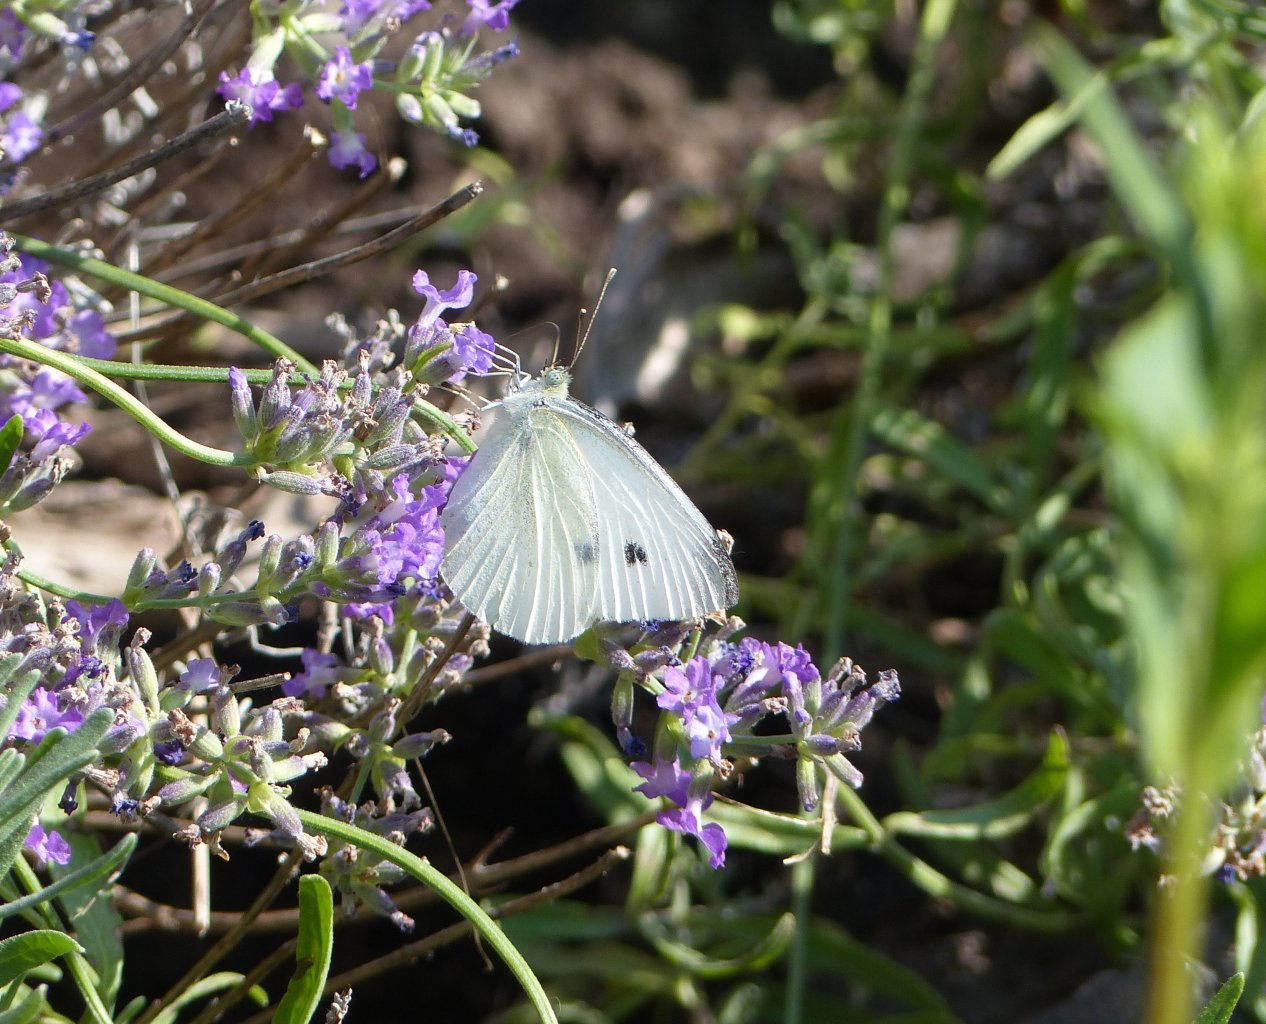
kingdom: Animalia
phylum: Arthropoda
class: Insecta
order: Lepidoptera
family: Pieridae
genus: Pieris
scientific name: Pieris rapae
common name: Cabbage White
